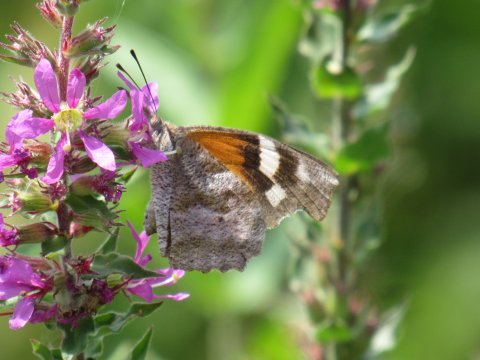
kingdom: Animalia
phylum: Arthropoda
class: Insecta
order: Lepidoptera
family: Nymphalidae
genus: Libytheana
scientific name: Libytheana carinenta
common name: American Snout
